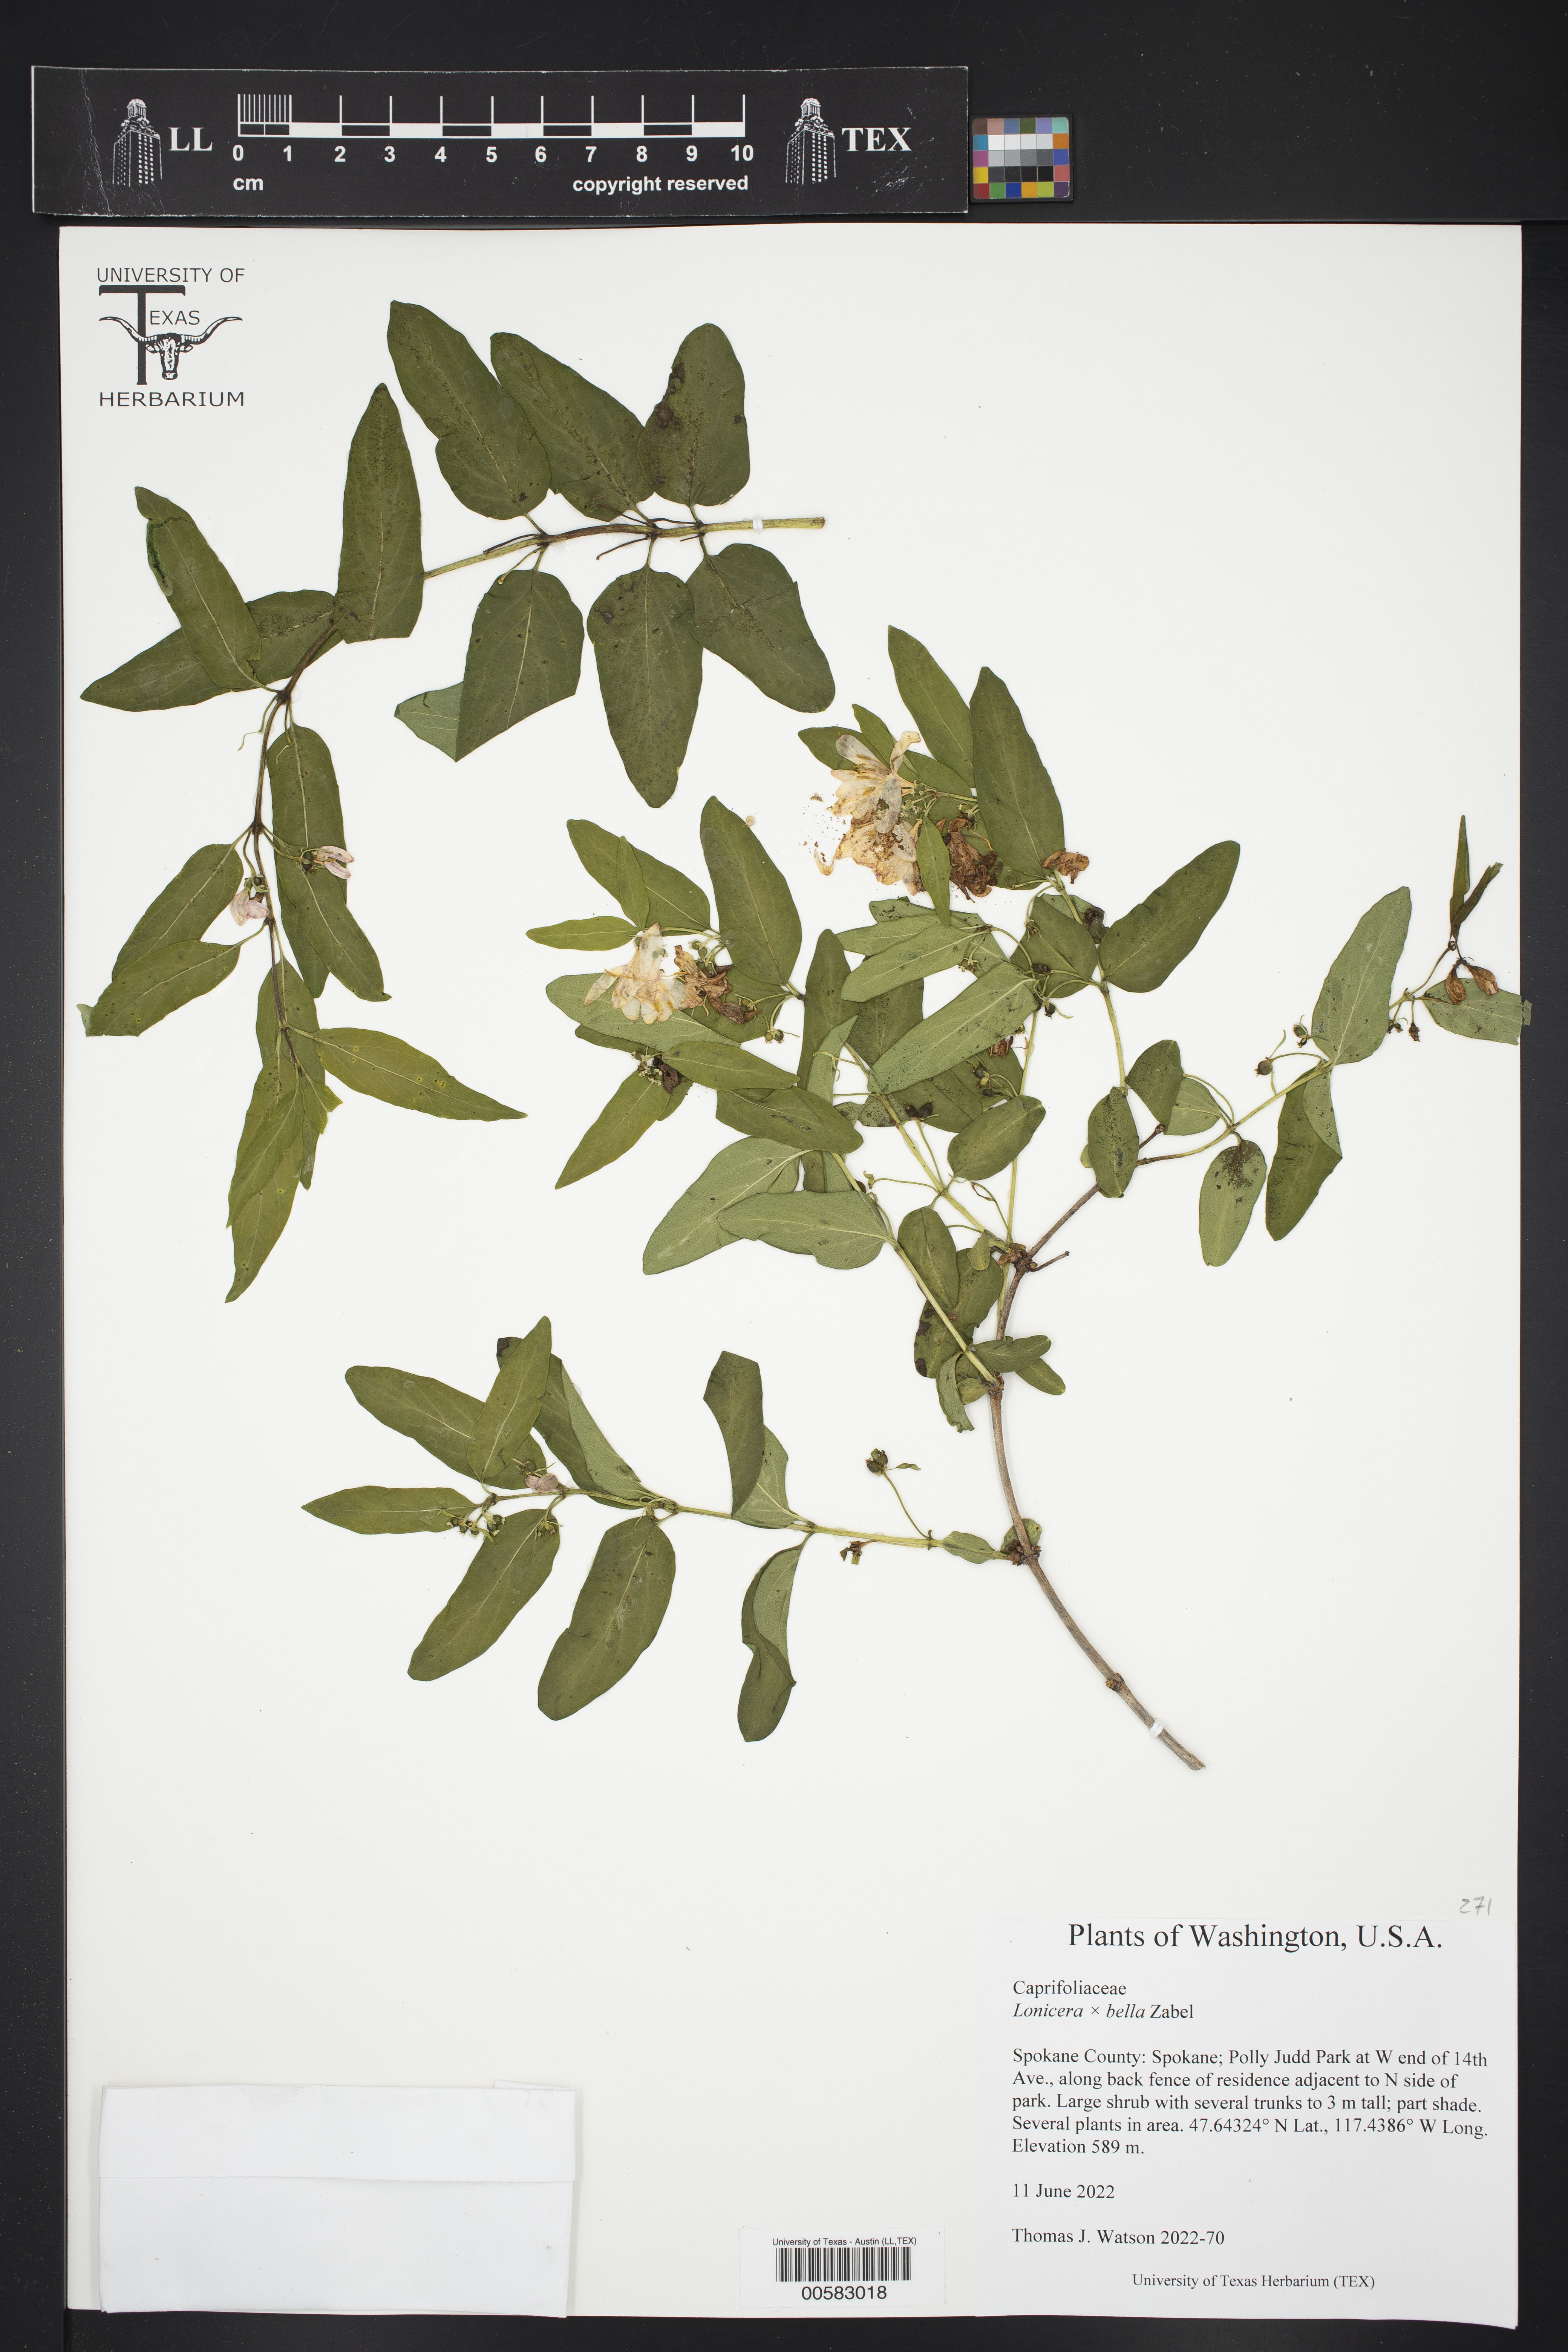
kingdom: Plantae
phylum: Tracheophyta
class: Magnoliopsida
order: Dipsacales
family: Caprifoliaceae
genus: Lonicera
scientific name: Lonicera bella
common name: Bell's honeysuckle
